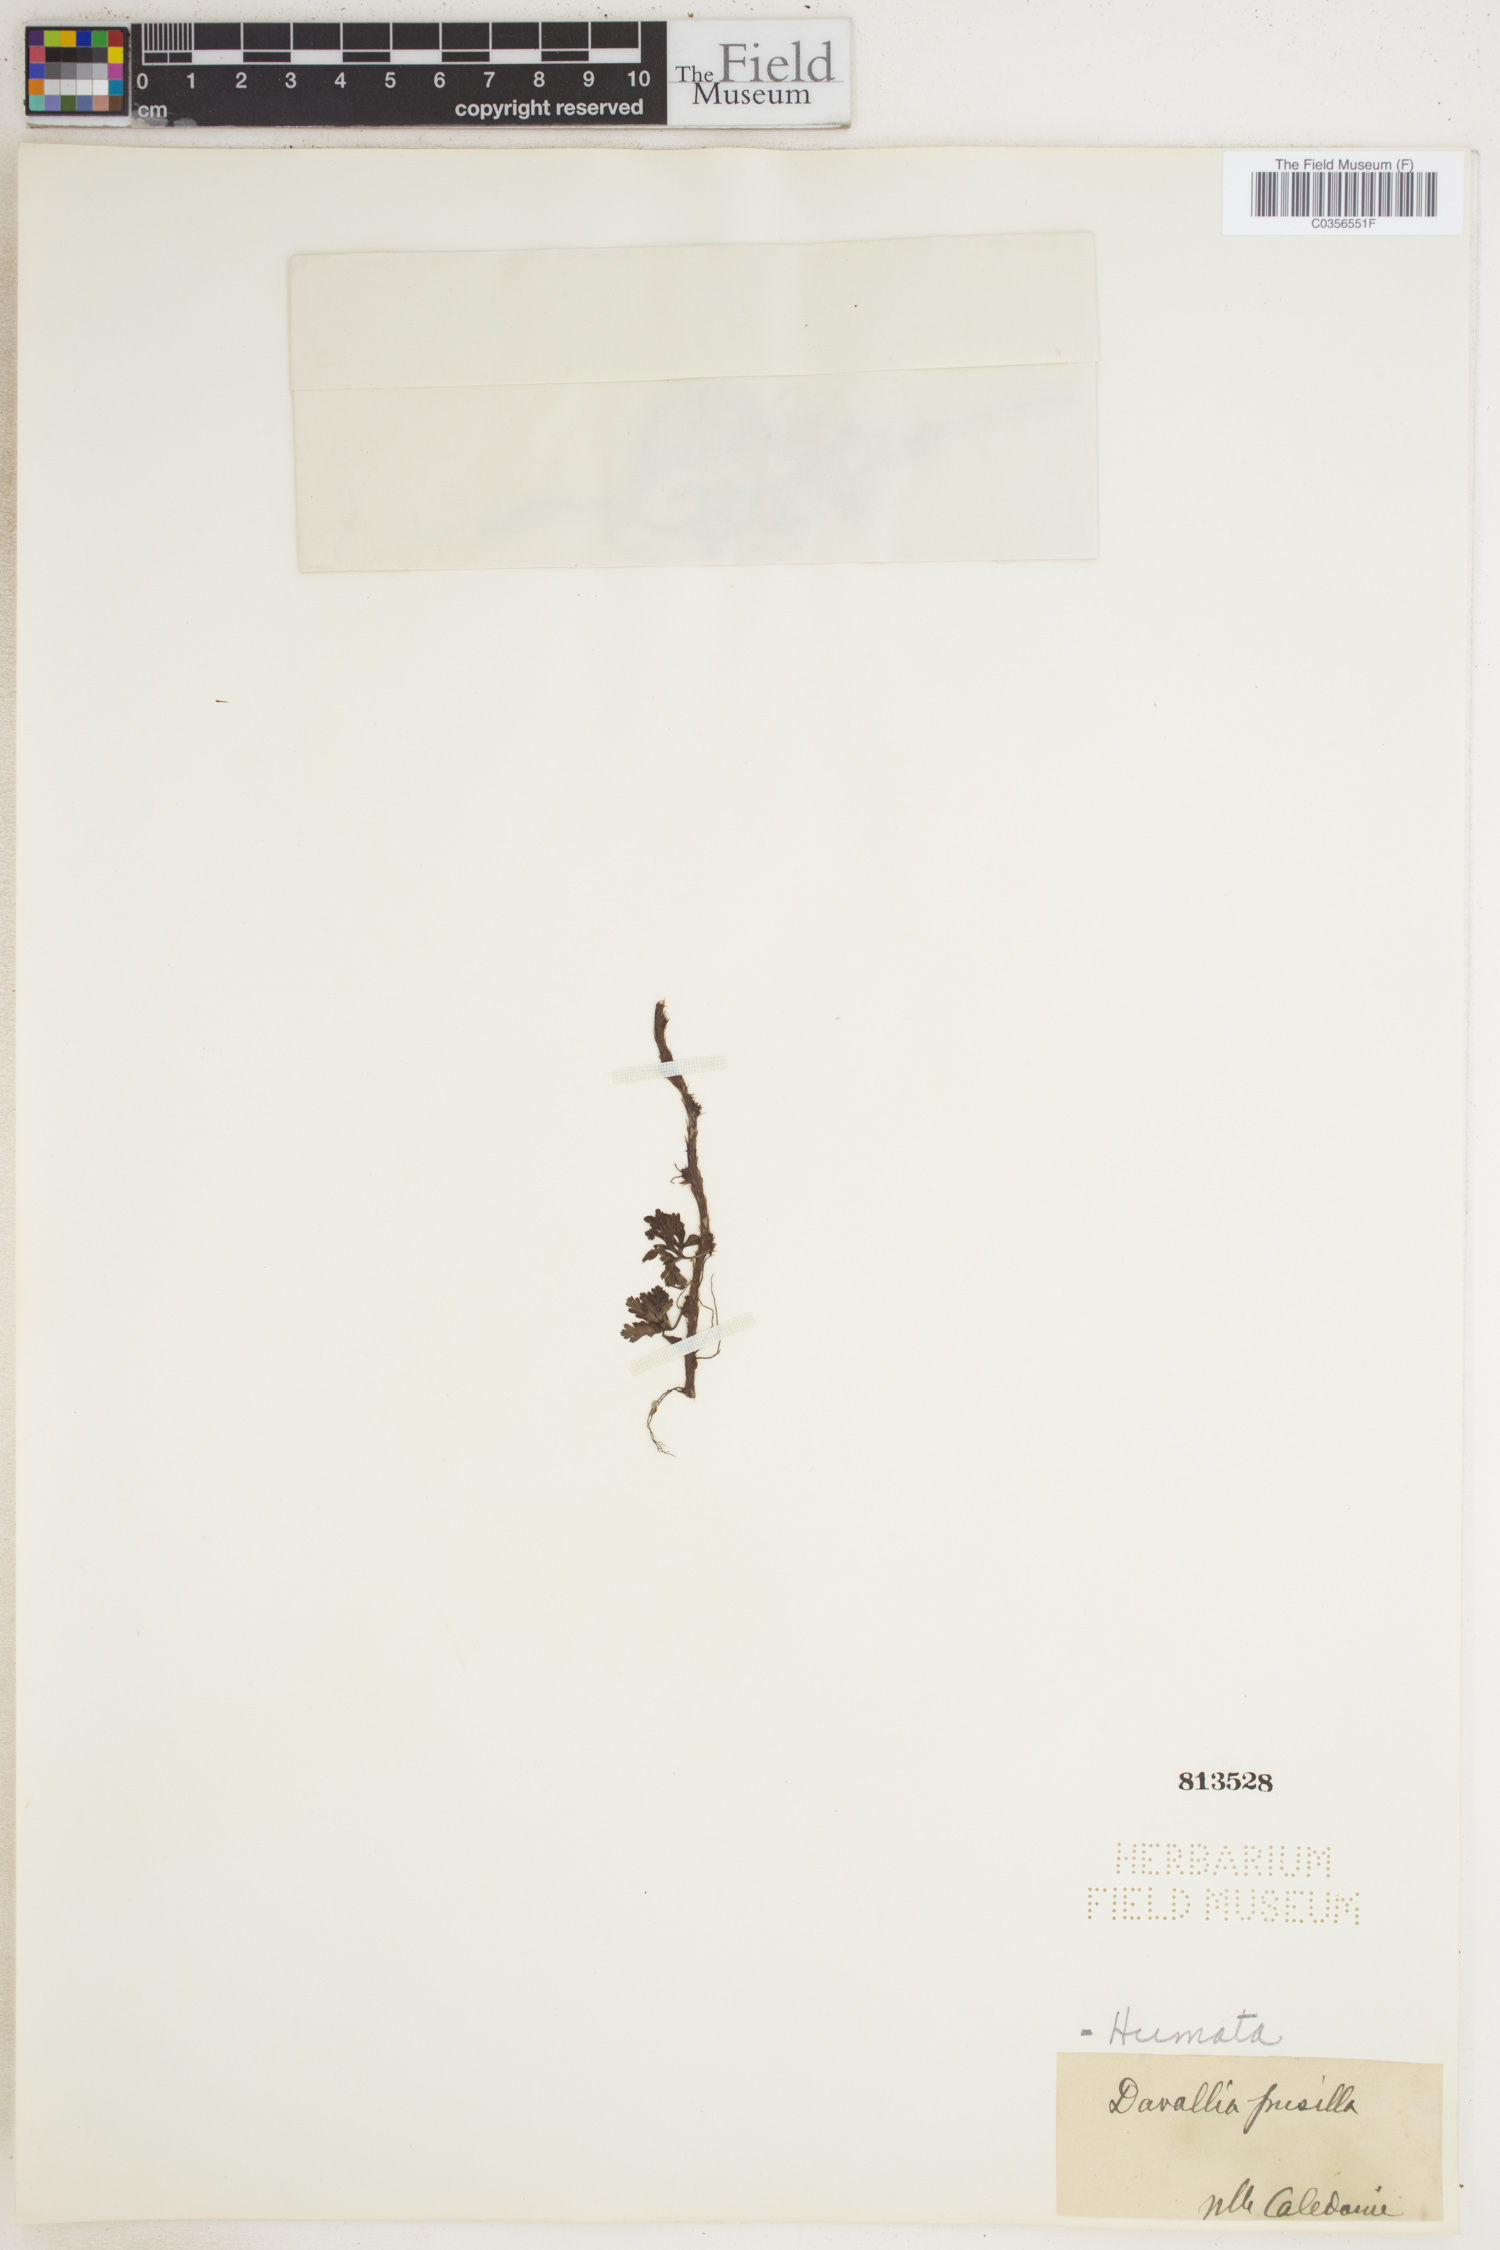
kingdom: Plantae
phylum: Tracheophyta
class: Polypodiopsida
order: Polypodiales
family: Davalliaceae
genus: Davallia
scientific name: Davallia pusilla
